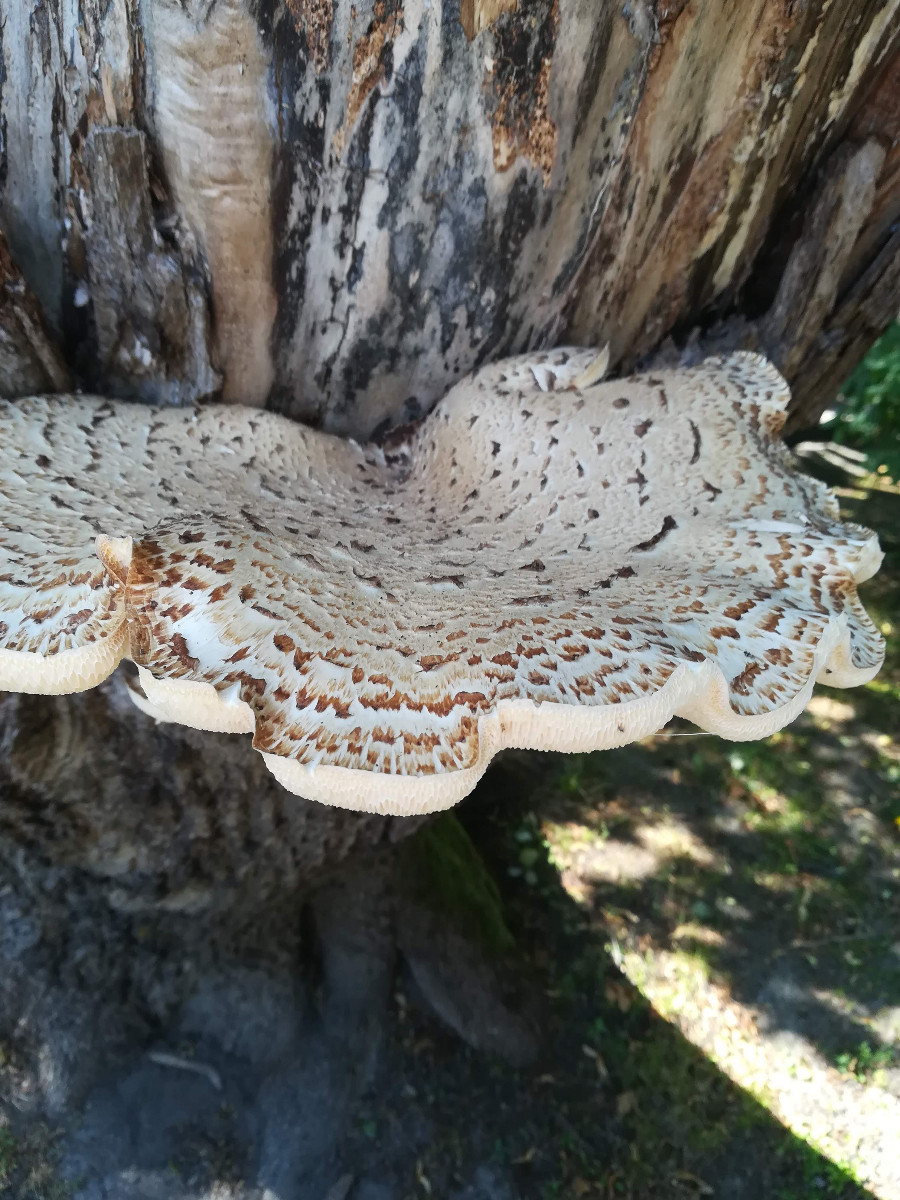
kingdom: Fungi
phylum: Basidiomycota
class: Agaricomycetes
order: Polyporales
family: Polyporaceae
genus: Cerioporus
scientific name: Cerioporus squamosus
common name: skællet stilkporesvamp
